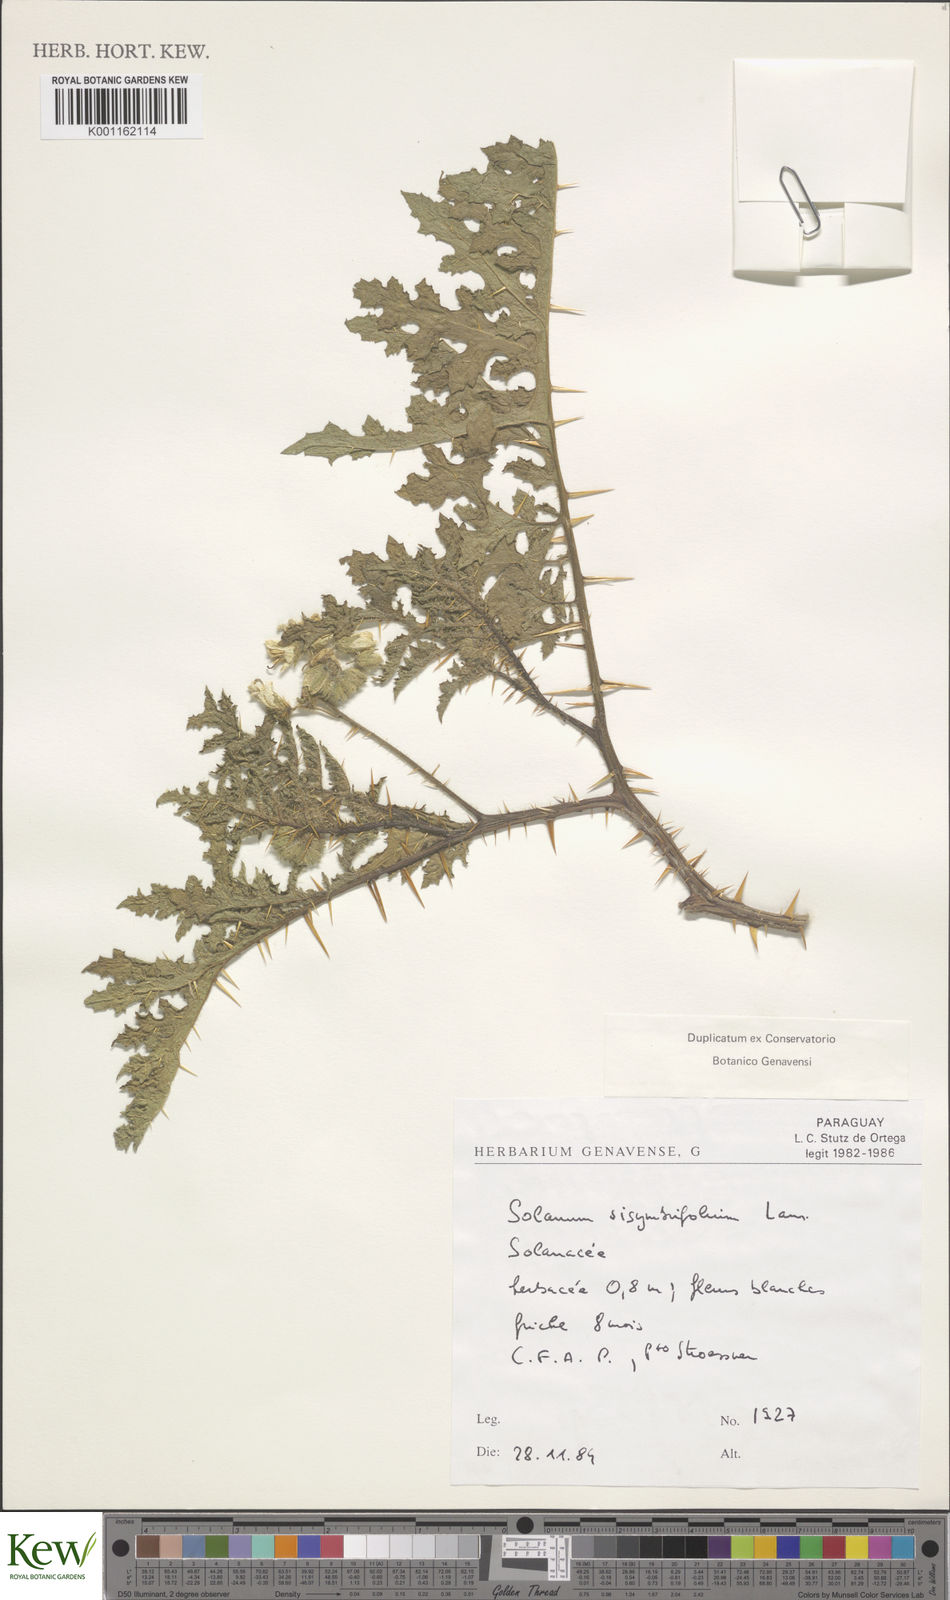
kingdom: Plantae
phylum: Tracheophyta
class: Magnoliopsida
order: Solanales
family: Solanaceae
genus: Solanum
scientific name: Solanum sisymbriifolium
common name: Red buffalo-bur
